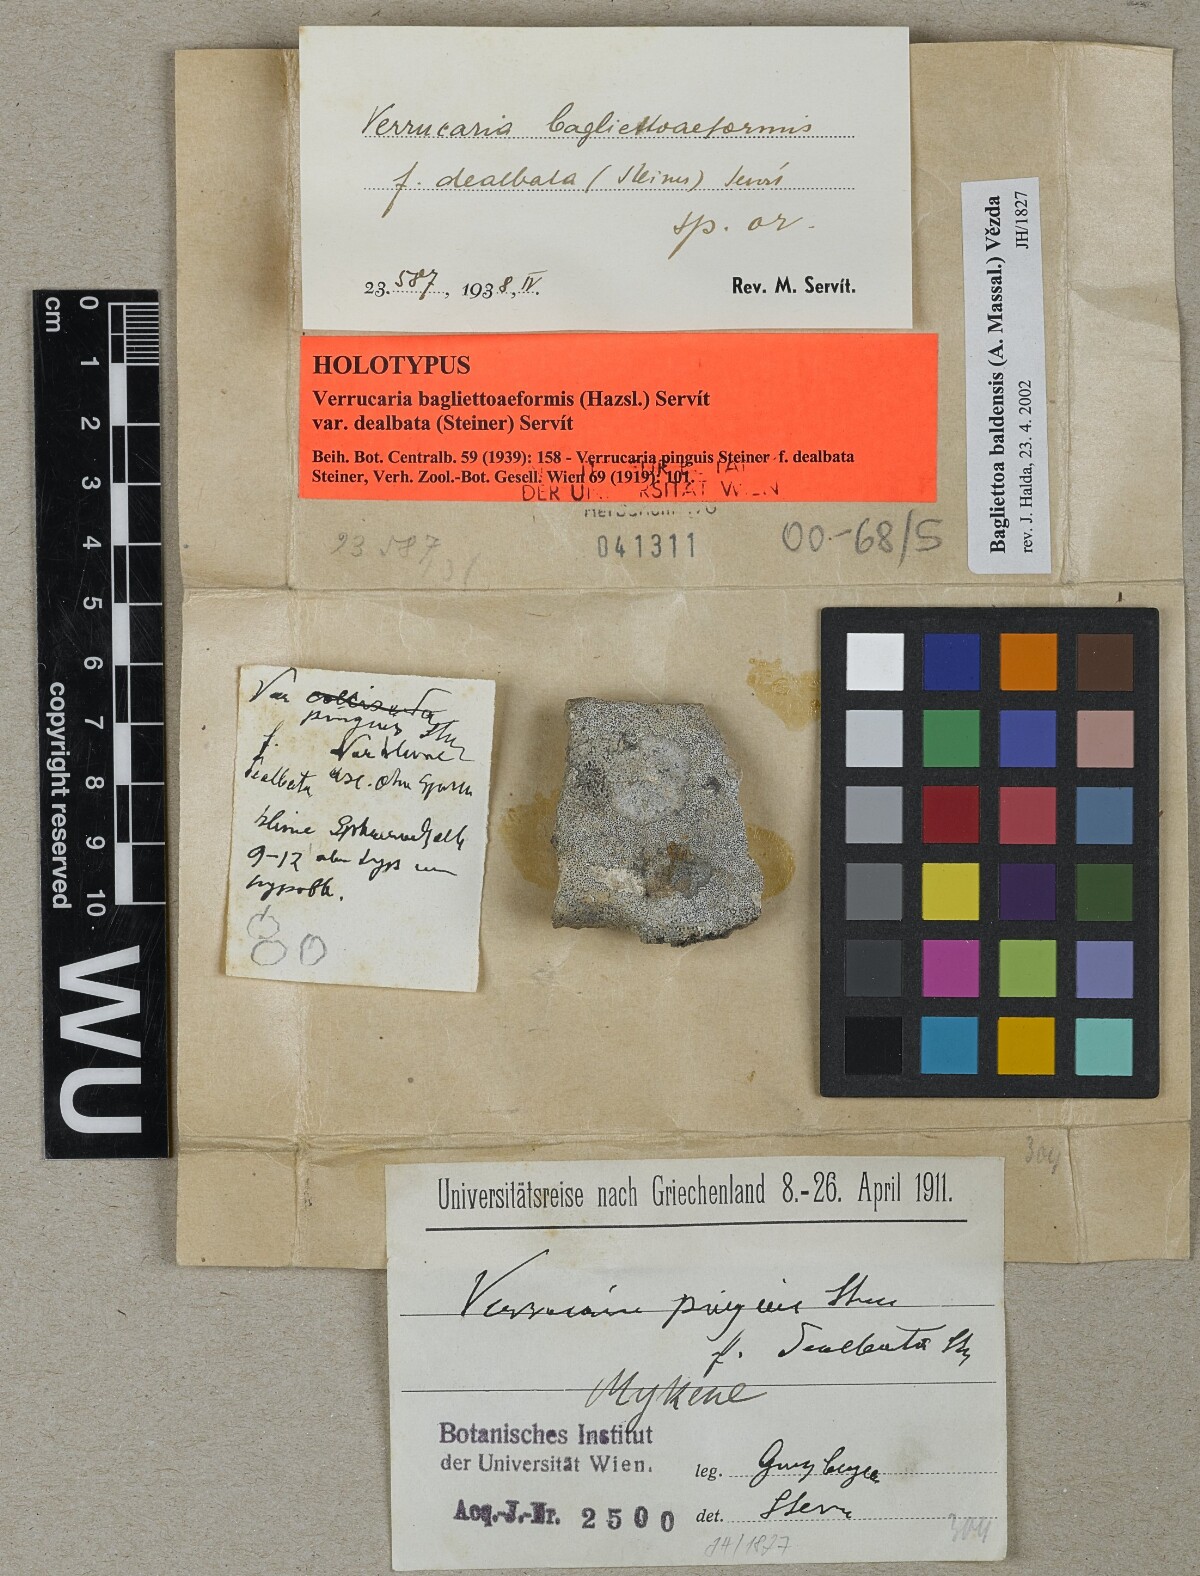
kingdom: Fungi
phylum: Ascomycota
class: Eurotiomycetes
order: Verrucariales
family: Verrucariaceae
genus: Bagliettoa
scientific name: Bagliettoa parmigerella
